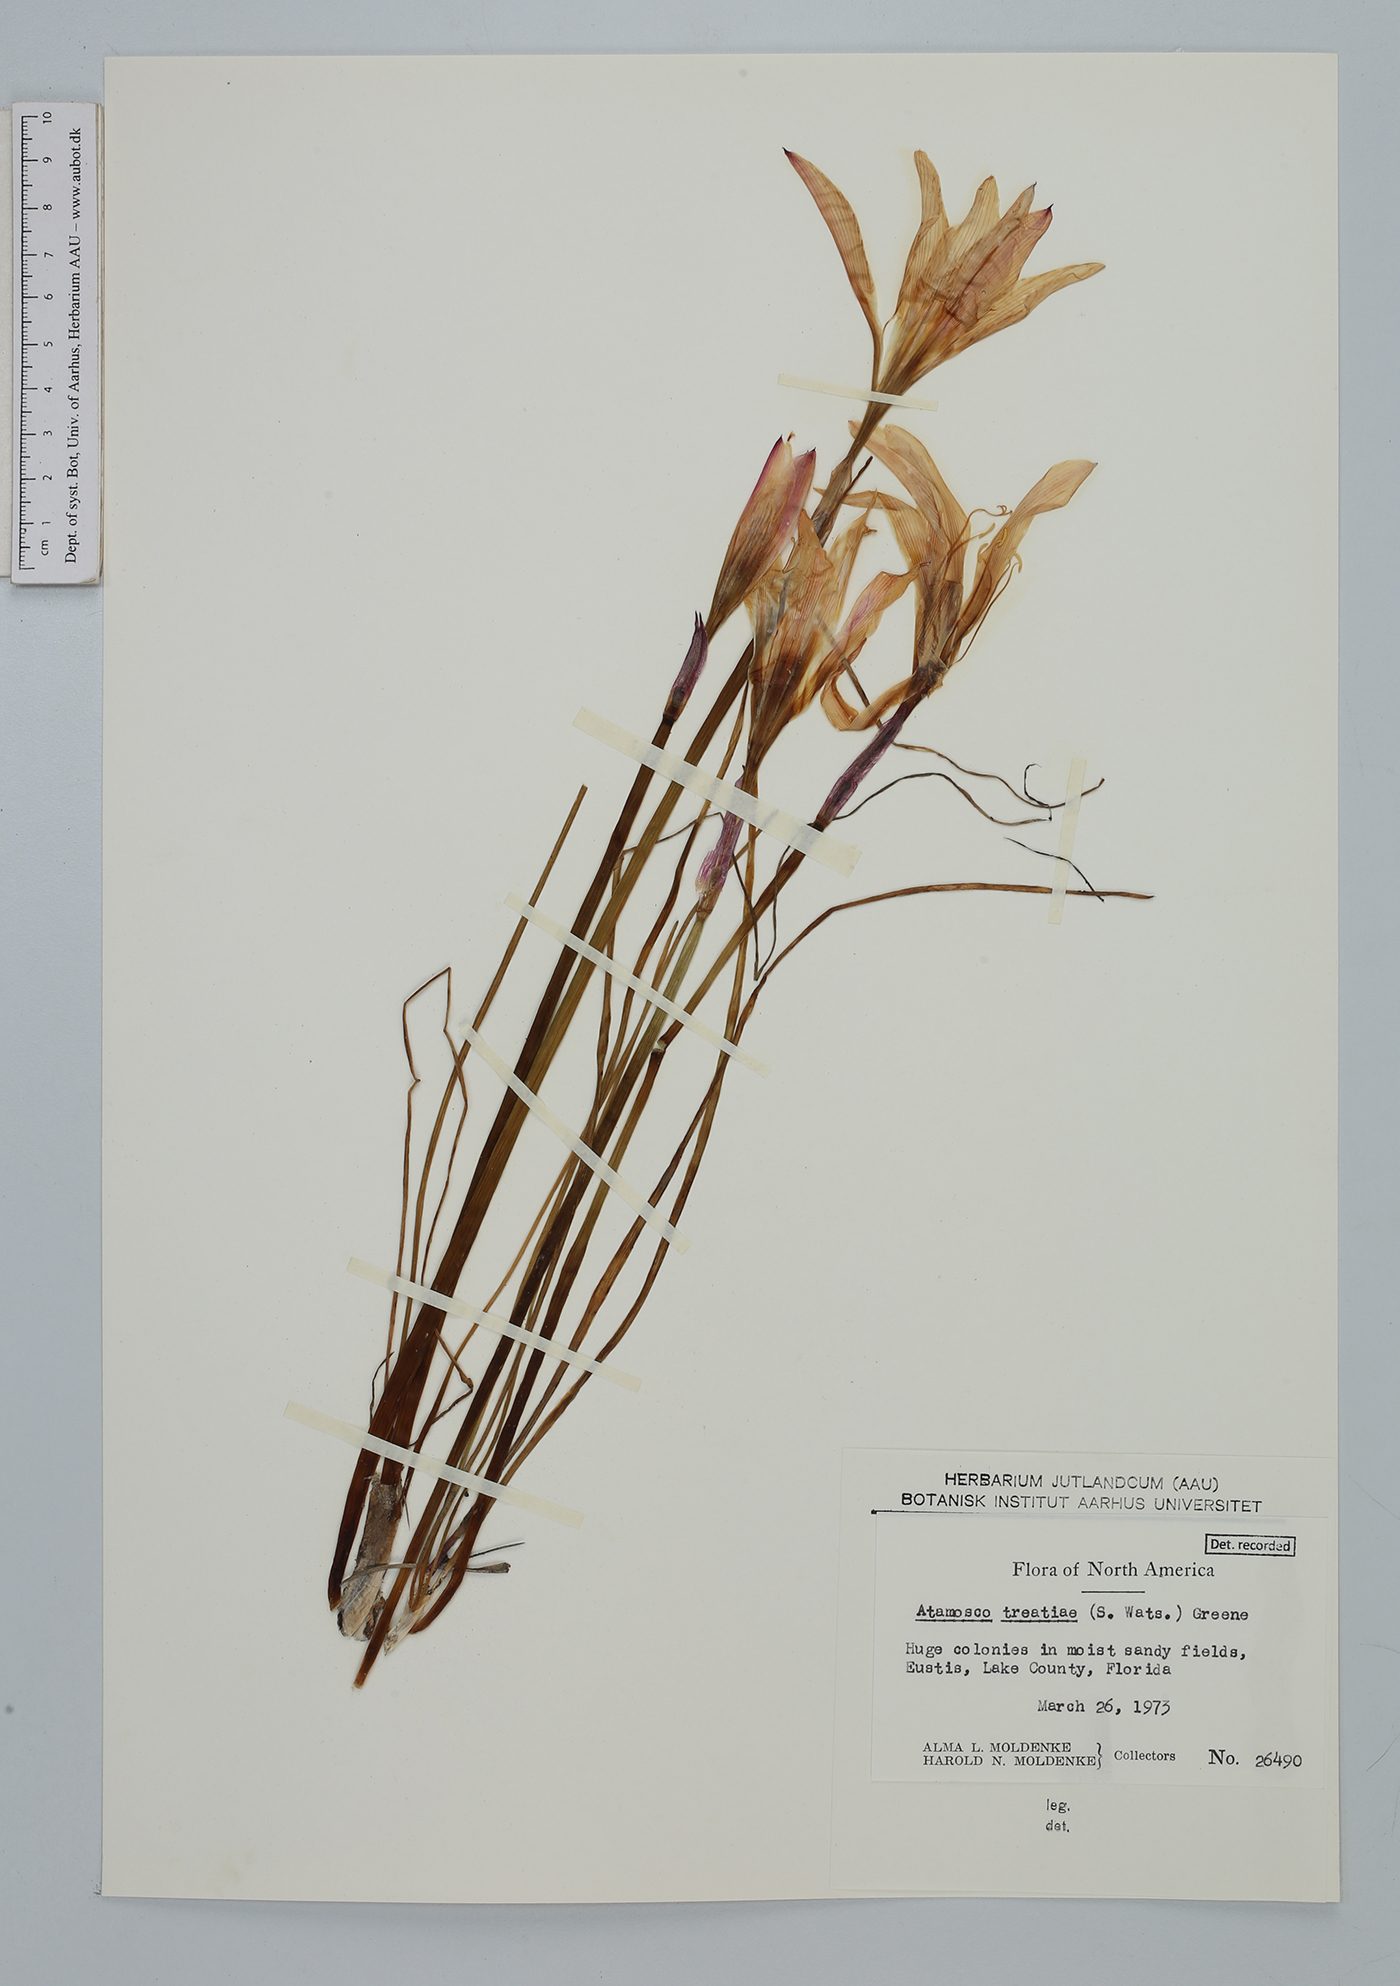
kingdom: Plantae
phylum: Tracheophyta
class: Liliopsida
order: Asparagales
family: Amaryllidaceae
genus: Zephyranthes
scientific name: Zephyranthes treatiae
